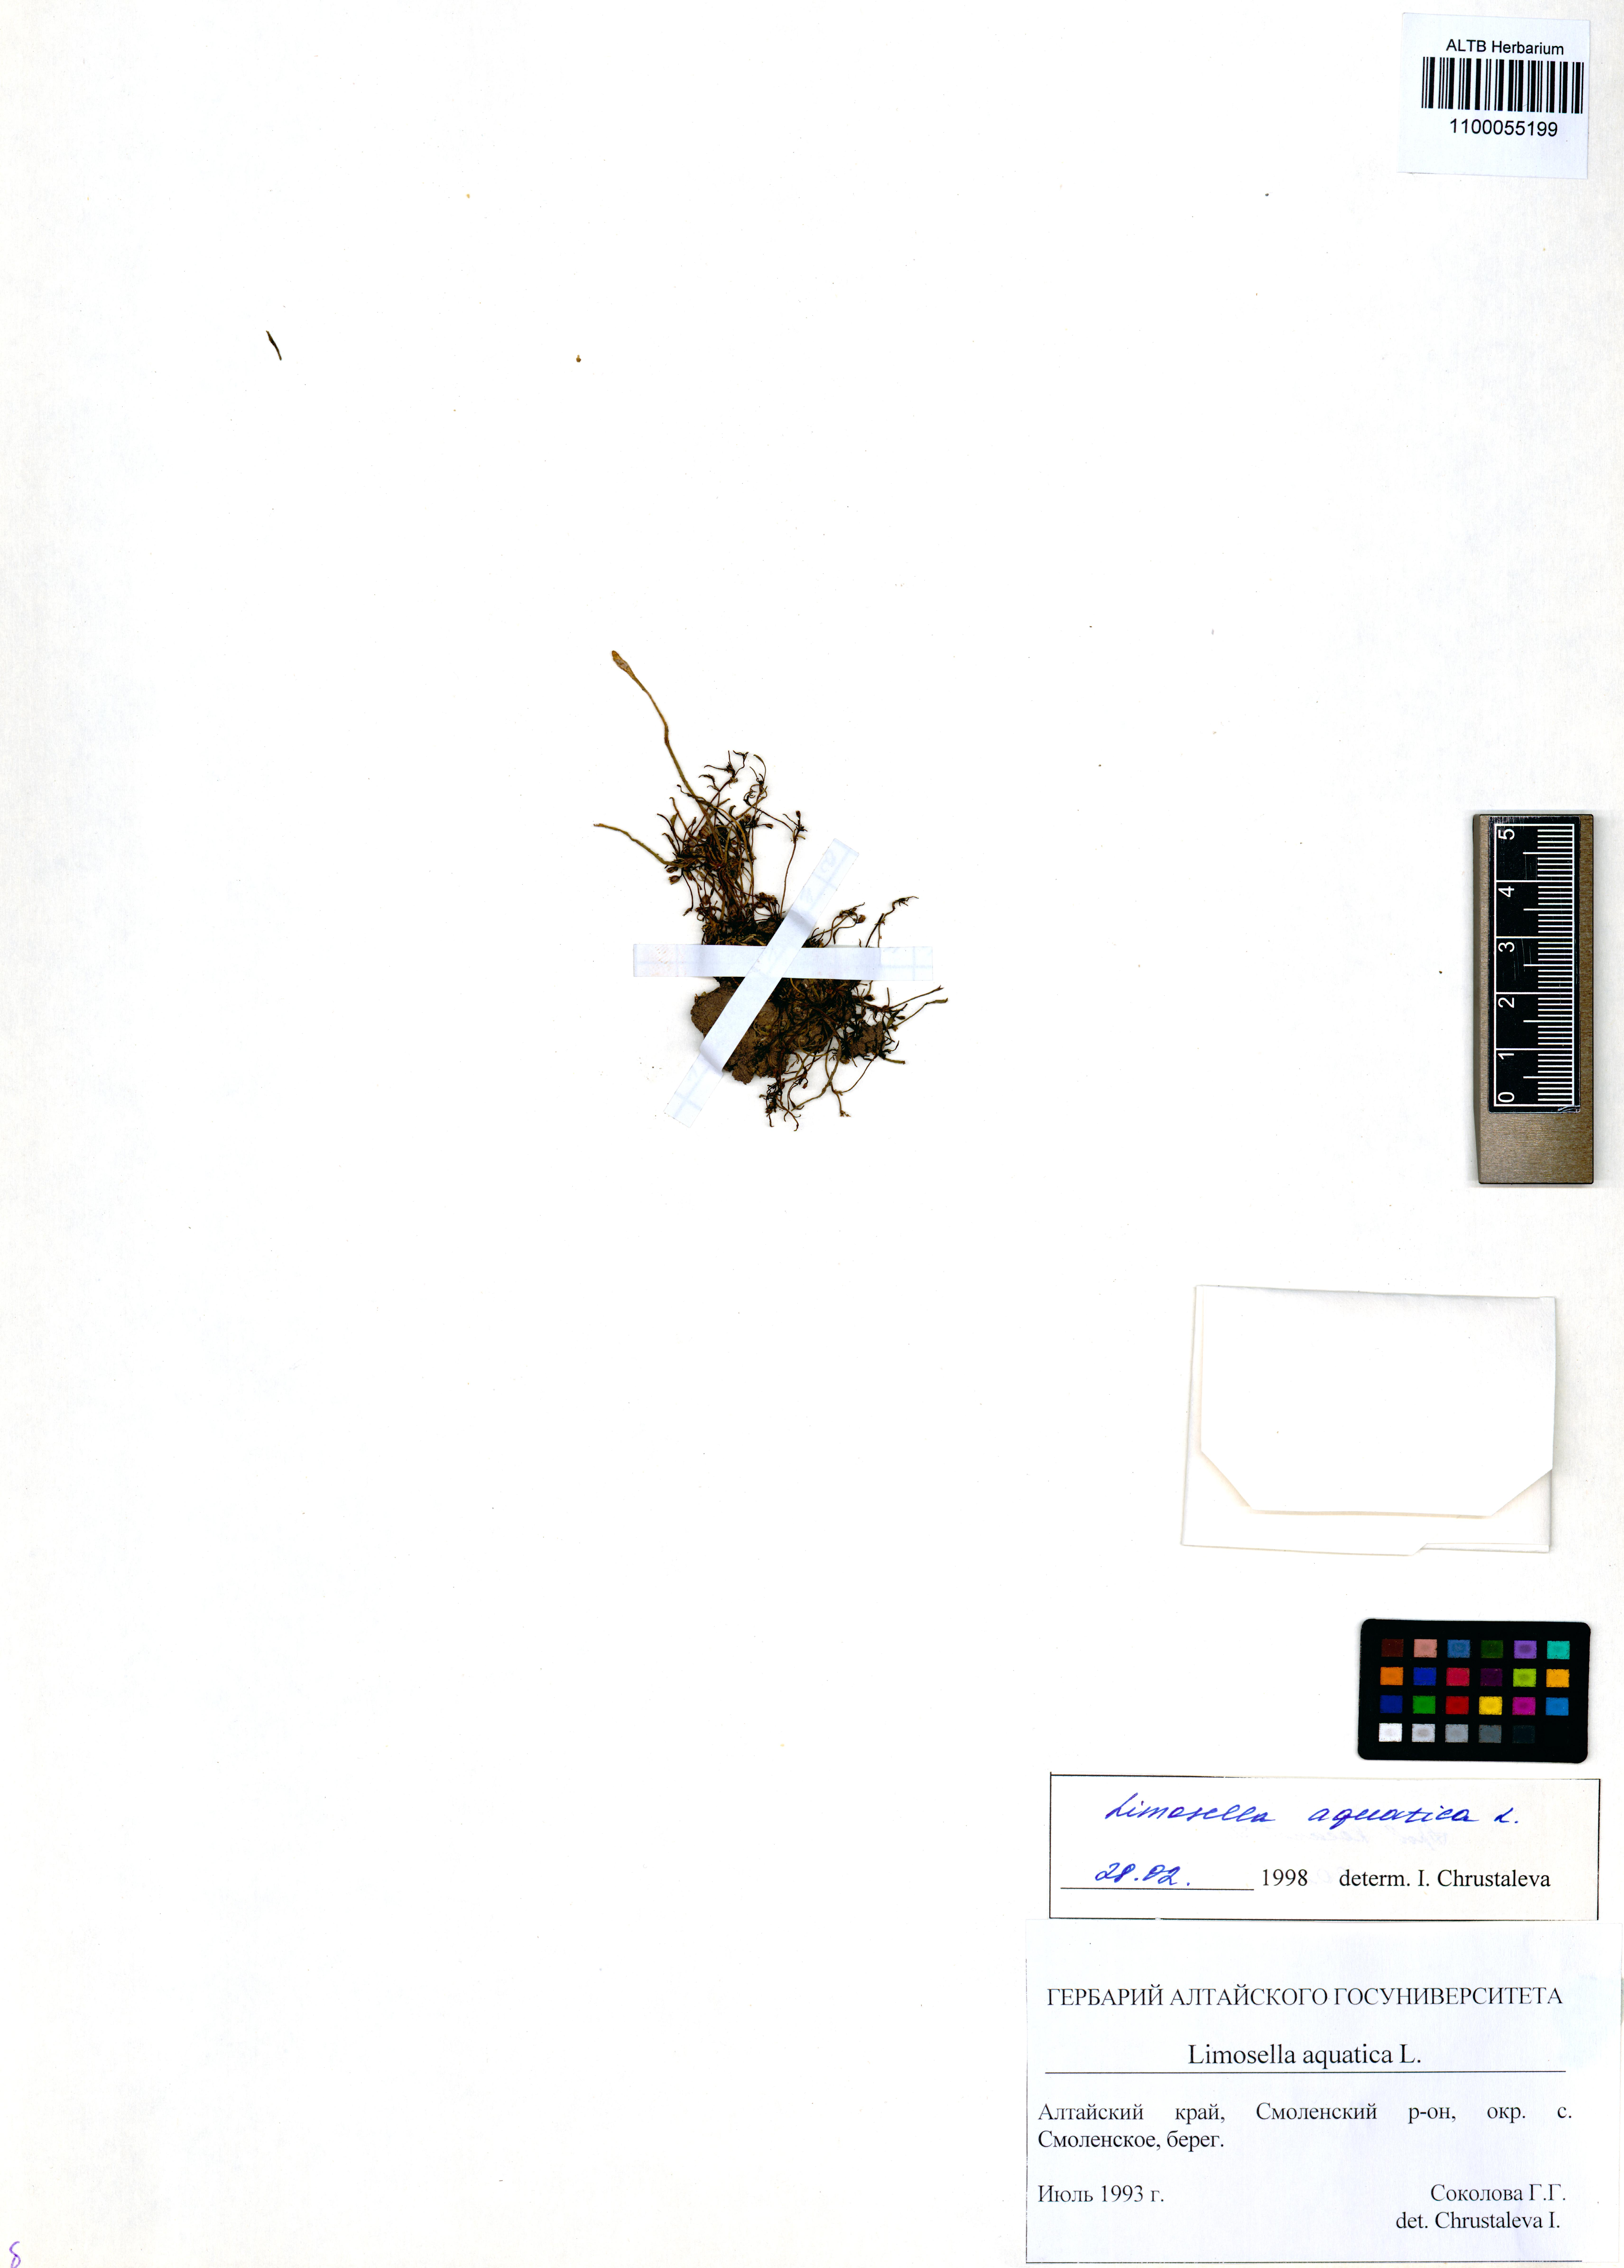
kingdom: Plantae
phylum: Tracheophyta
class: Magnoliopsida
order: Lamiales
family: Scrophulariaceae
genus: Limosella
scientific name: Limosella aquatica
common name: Mudwort
